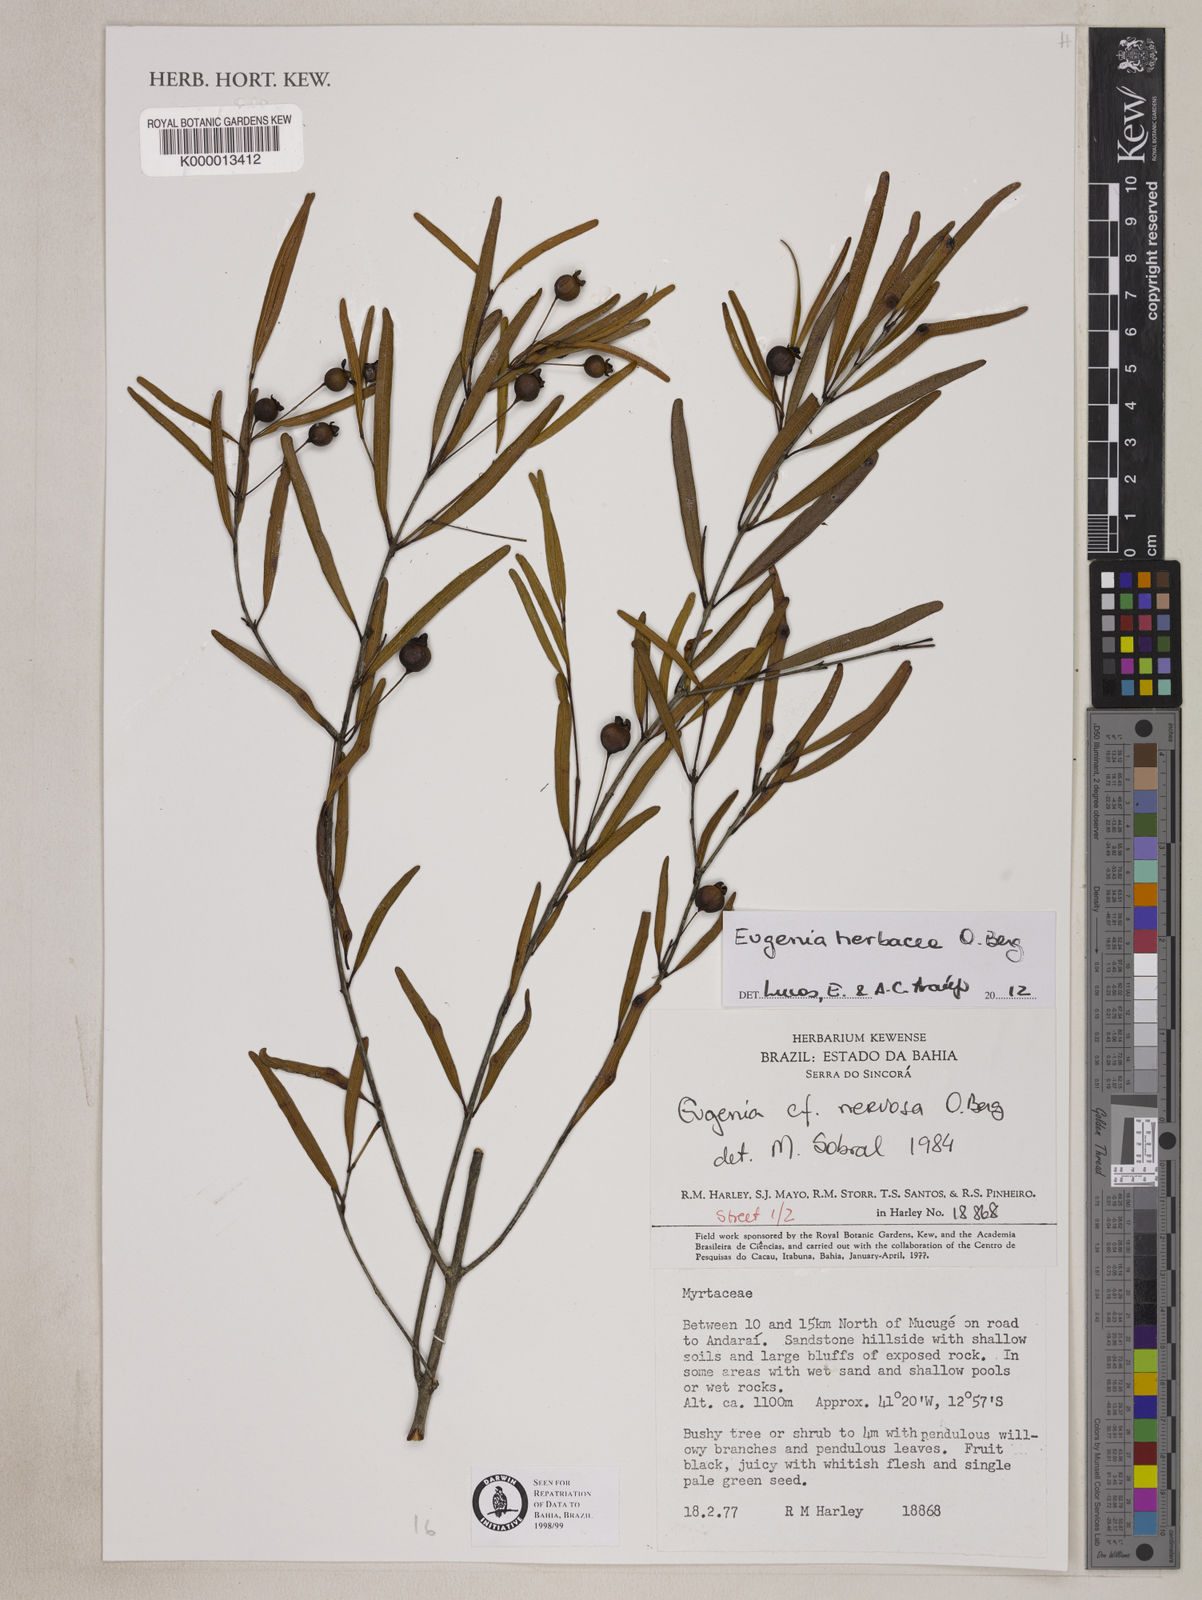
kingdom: Plantae
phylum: Tracheophyta
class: Magnoliopsida
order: Myrtales
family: Myrtaceae
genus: Myrcianthes
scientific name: Myrcianthes
